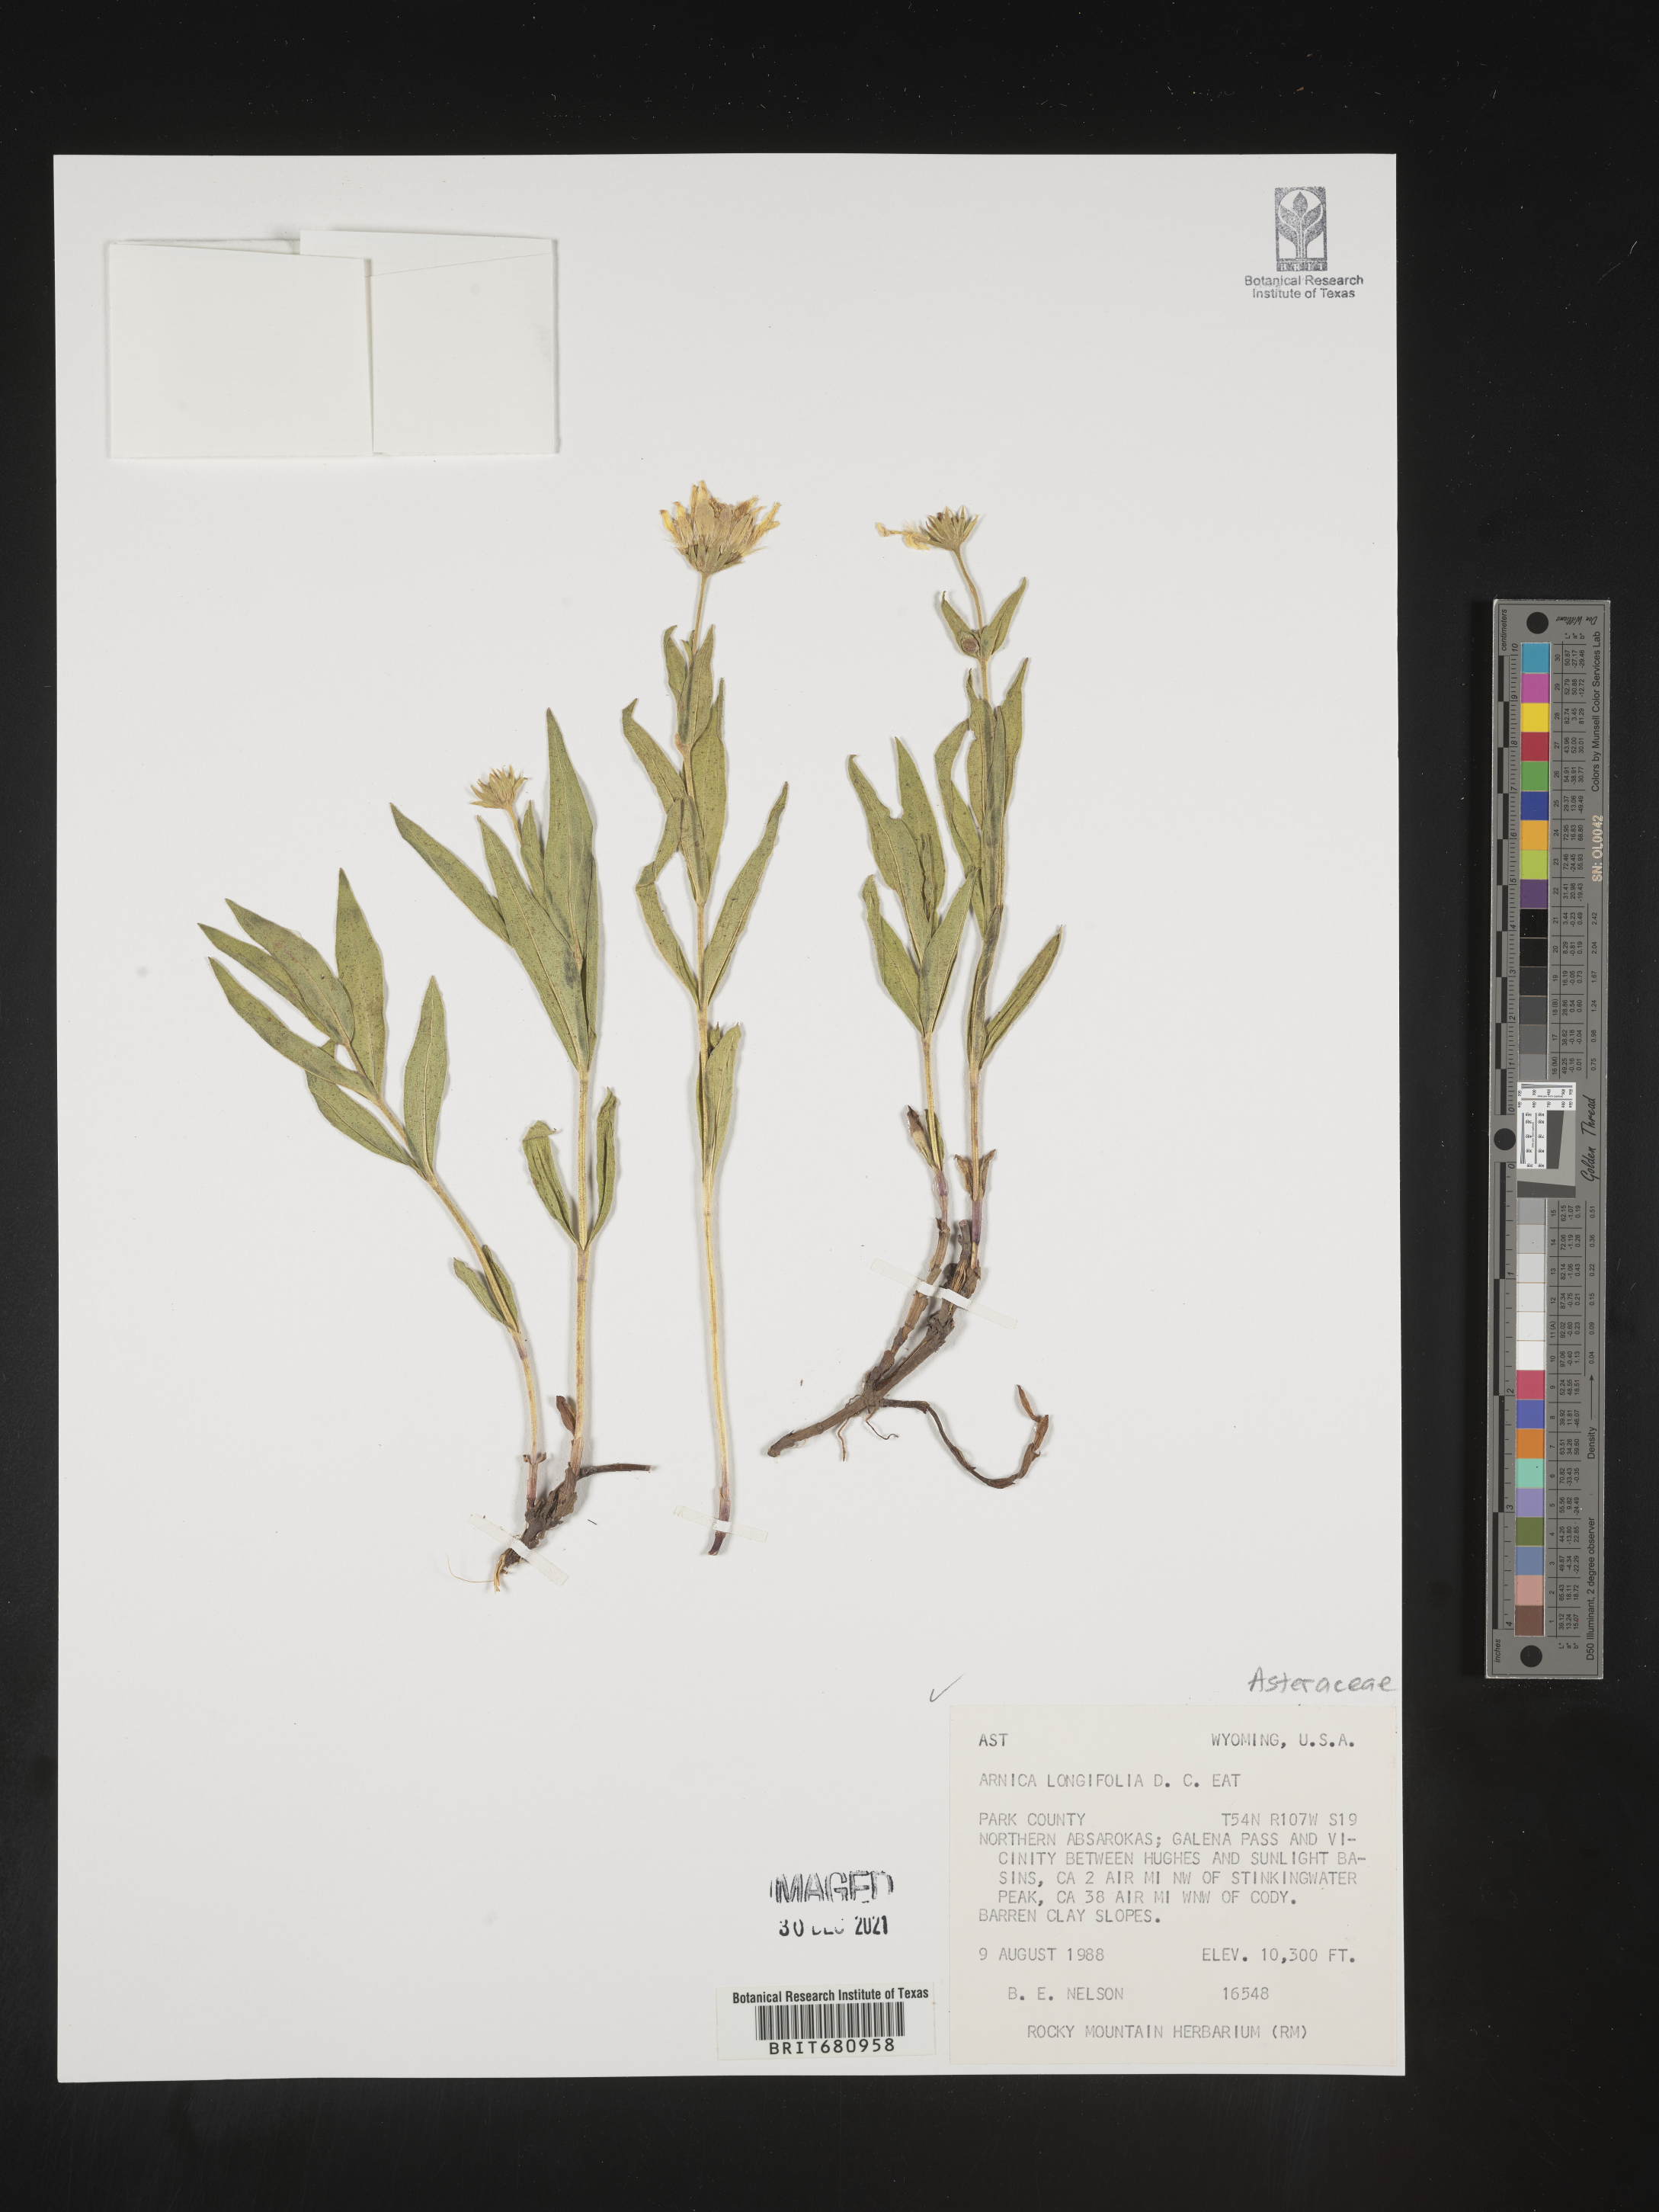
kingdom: Plantae
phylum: Tracheophyta
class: Magnoliopsida
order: Asterales
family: Asteraceae
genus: Arnica
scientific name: Arnica longifolia
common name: Spear-leaf arnica
